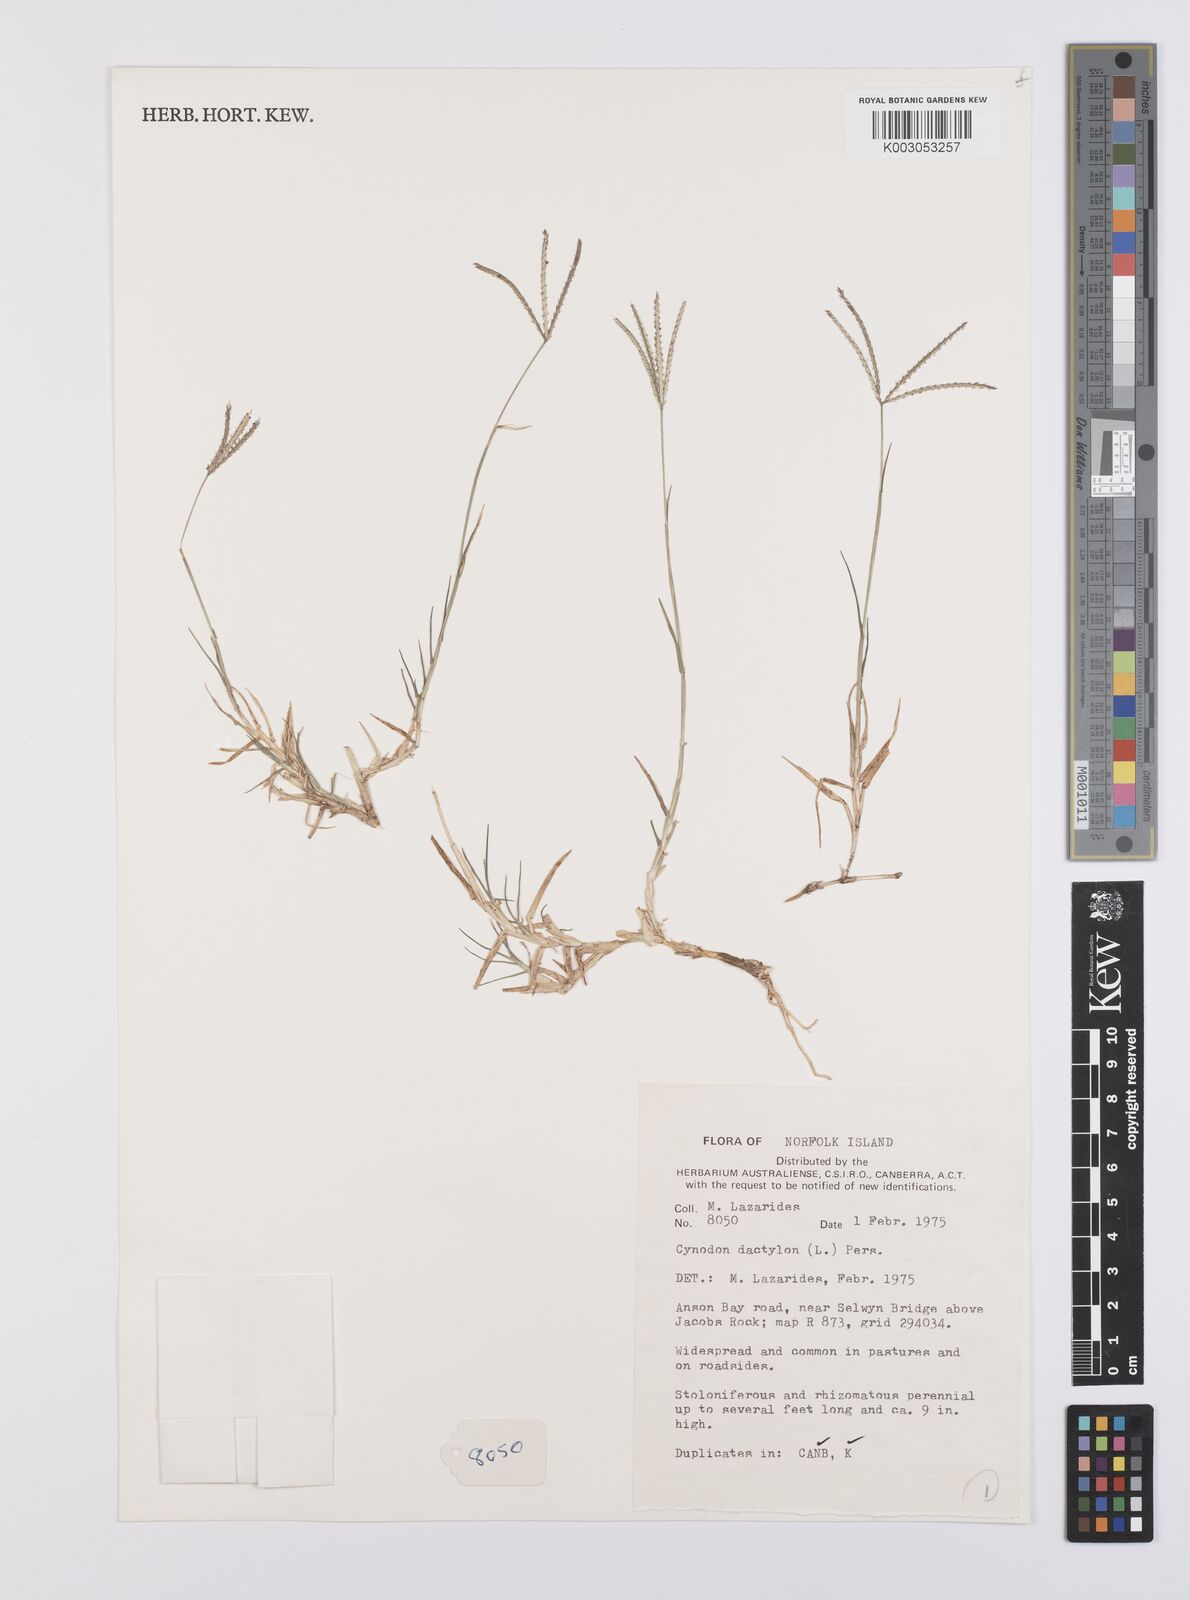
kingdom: Plantae
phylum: Tracheophyta
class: Liliopsida
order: Poales
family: Poaceae
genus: Cynodon
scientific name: Cynodon dactylon
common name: Bermuda grass
